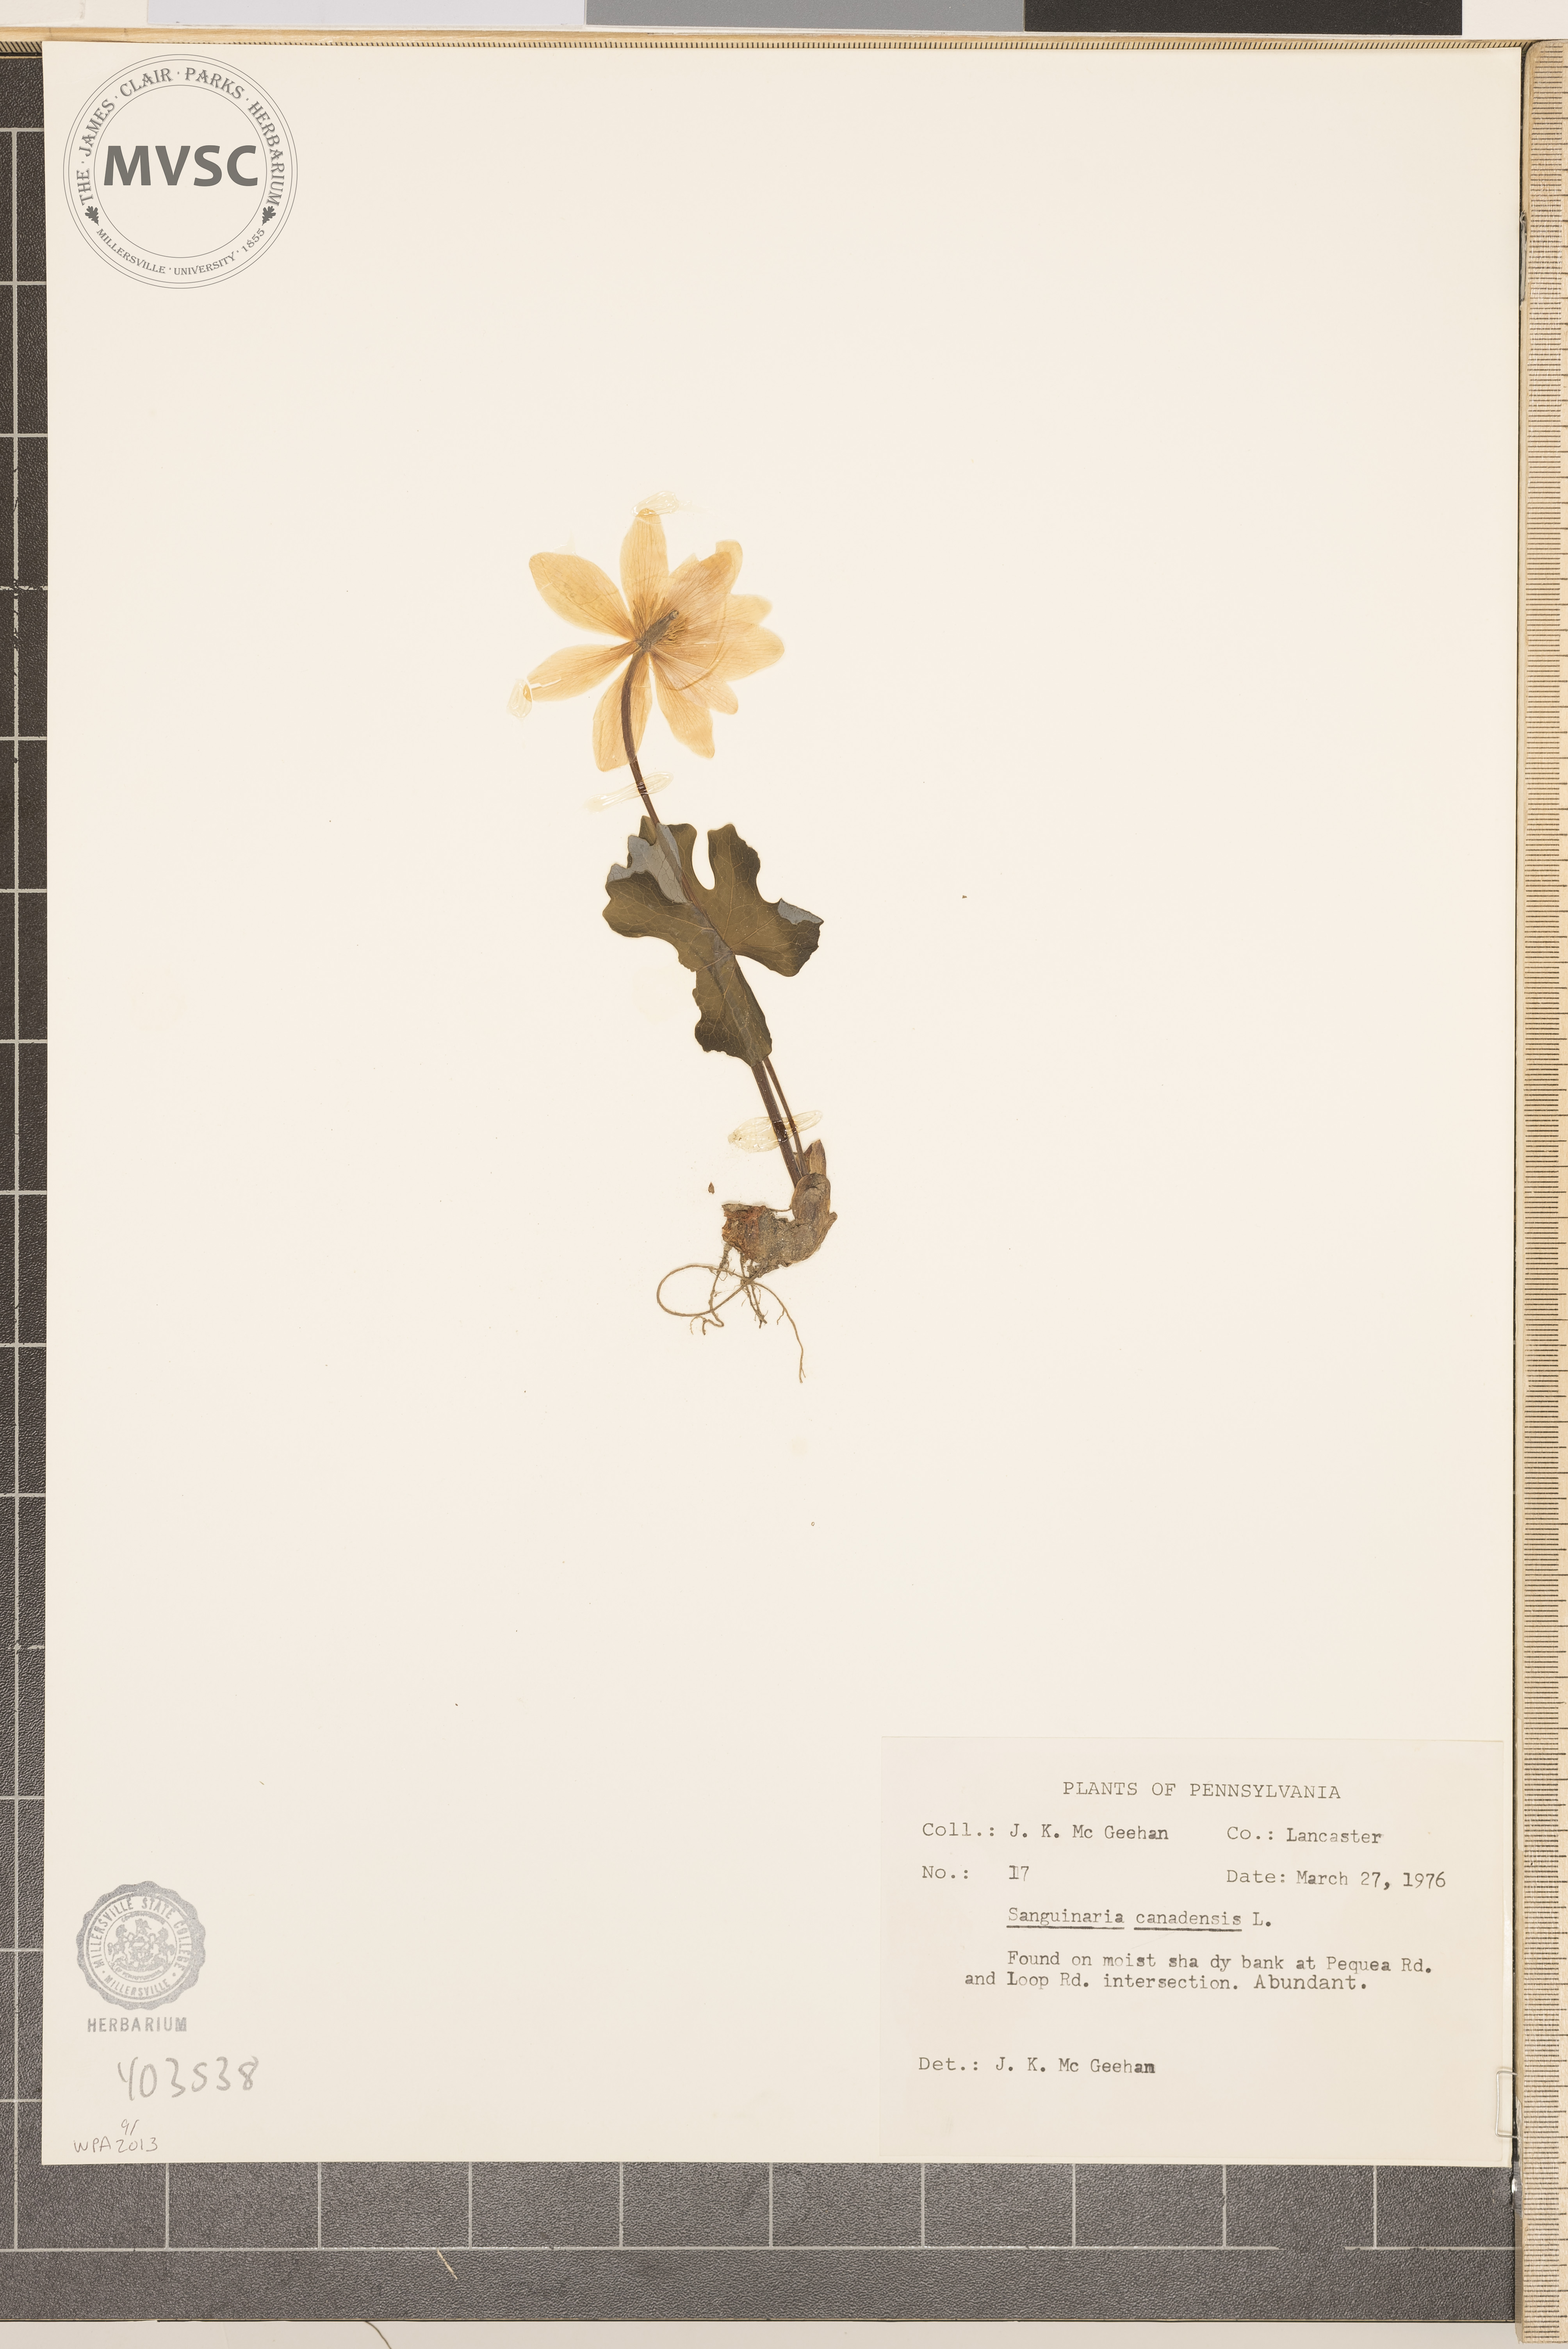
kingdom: Plantae
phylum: Tracheophyta
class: Magnoliopsida
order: Ranunculales
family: Papaveraceae
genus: Sanguinaria
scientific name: Sanguinaria canadensis
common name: Bloodroot
